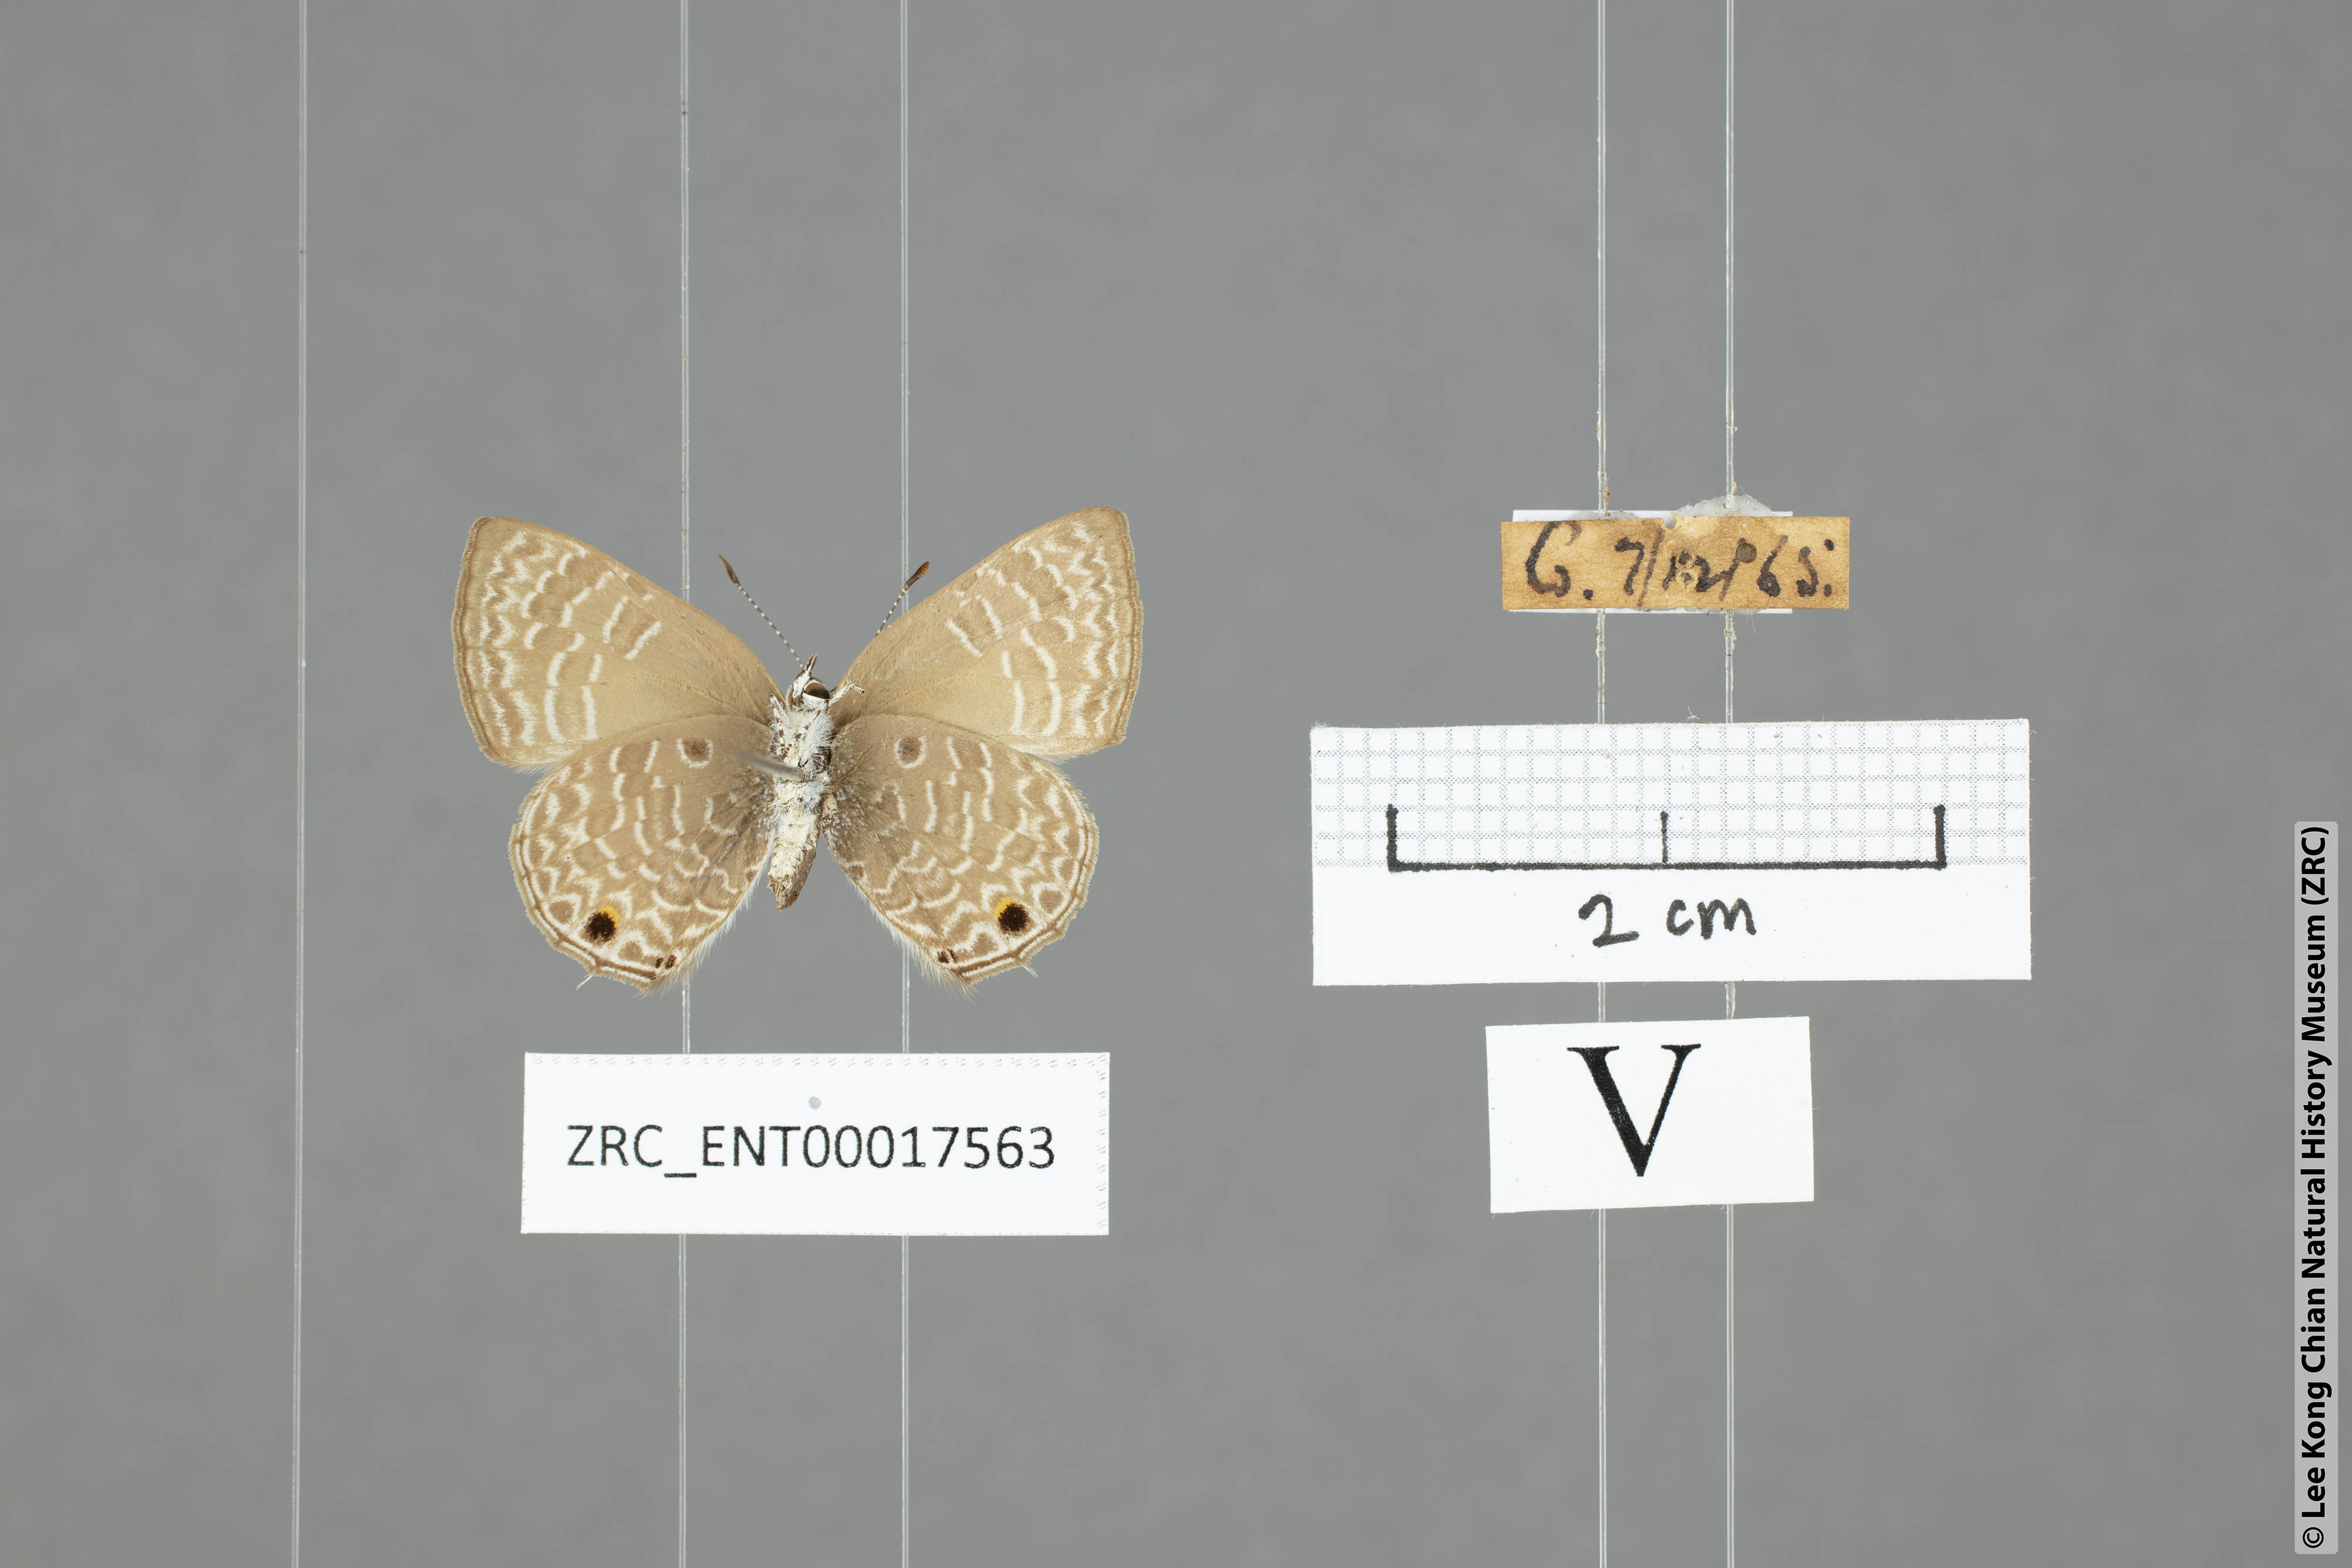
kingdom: Animalia
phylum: Arthropoda
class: Insecta
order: Lepidoptera
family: Lycaenidae
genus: Anthene
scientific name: Anthene lycaenoides
